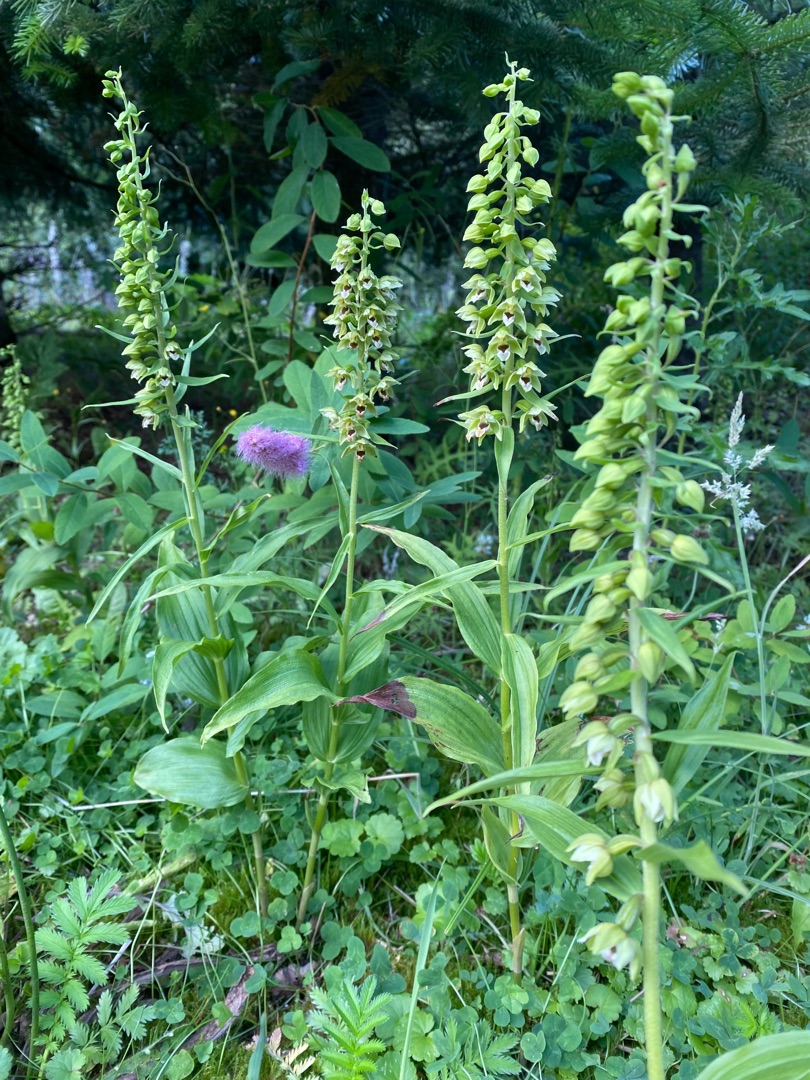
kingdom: Plantae
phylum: Tracheophyta
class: Liliopsida
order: Asparagales
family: Orchidaceae
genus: Epipactis
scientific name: Epipactis helleborine
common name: Skov-hullæbe
